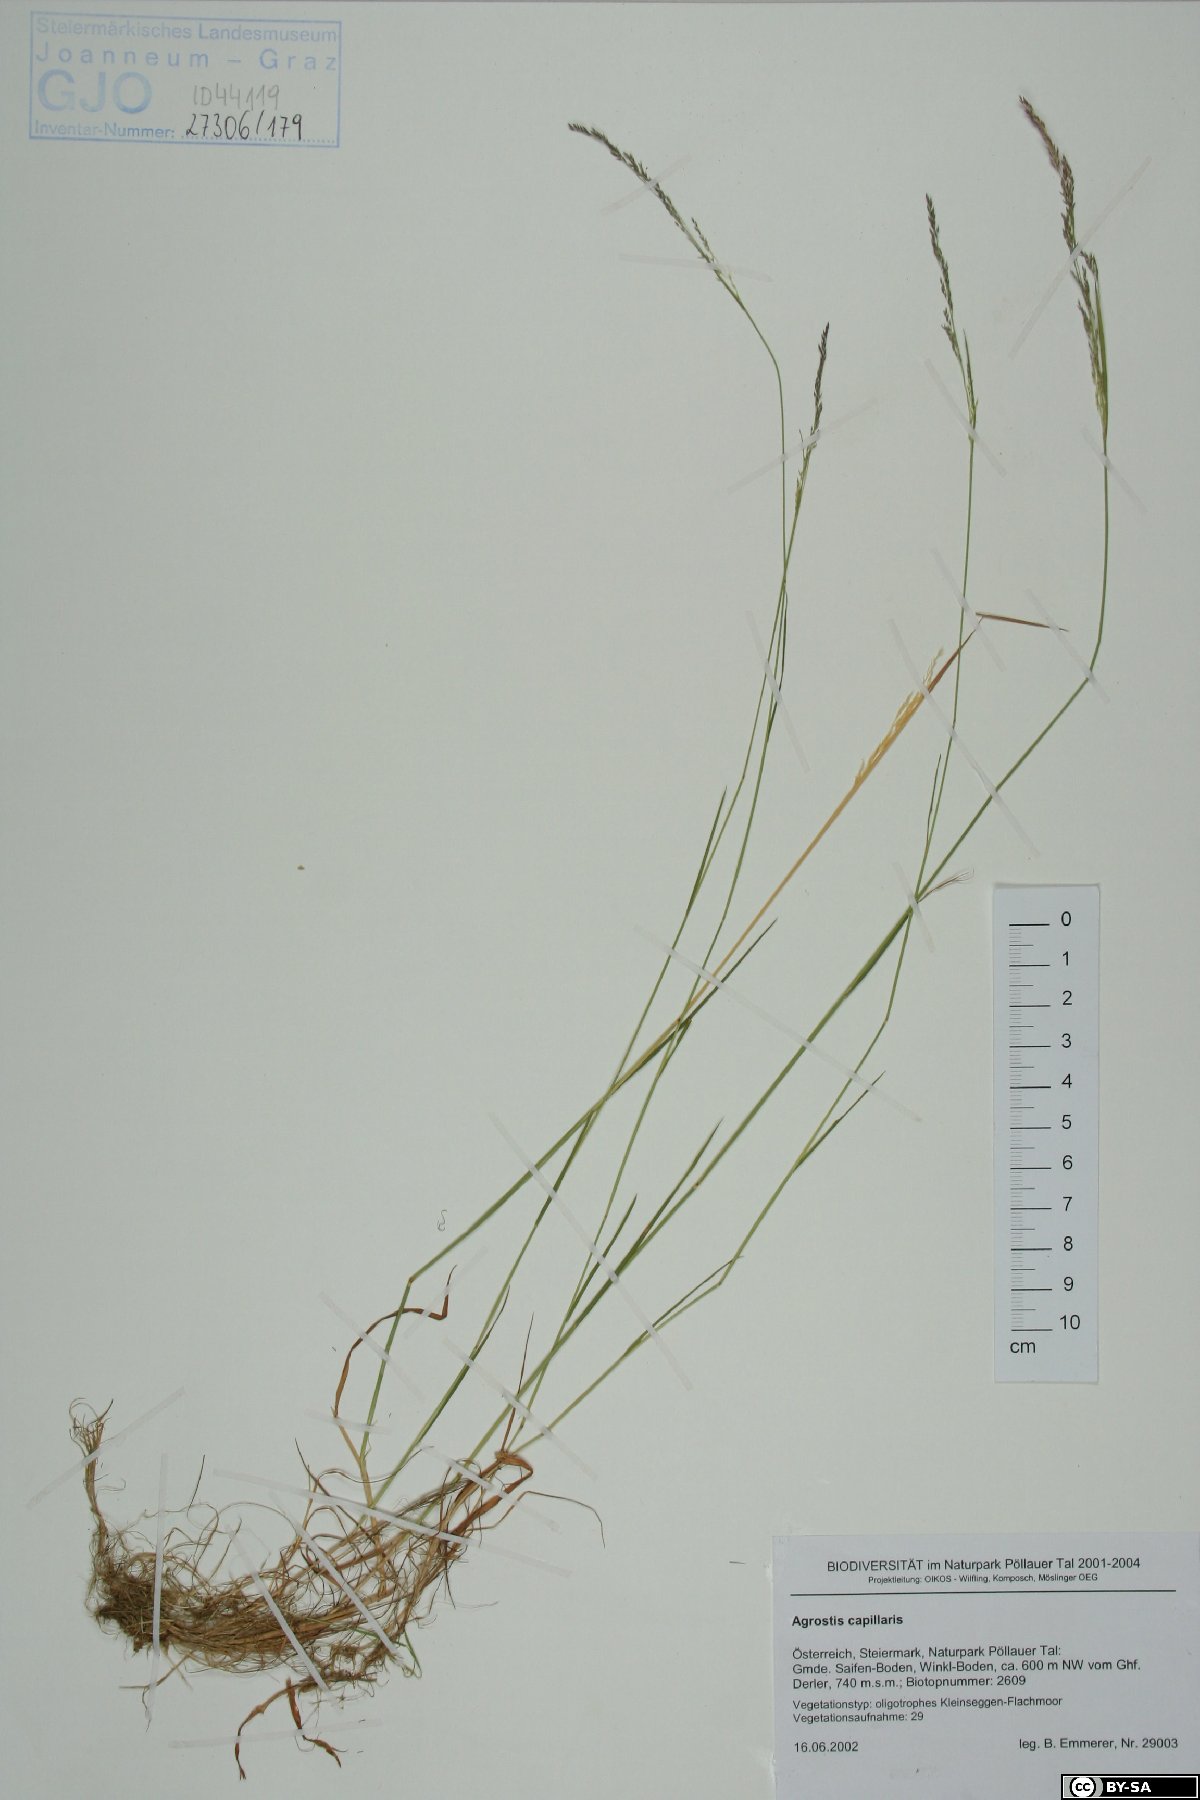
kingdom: Plantae
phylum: Tracheophyta
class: Liliopsida
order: Poales
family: Poaceae
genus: Agrostis
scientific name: Agrostis capillaris
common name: Colonial bentgrass
